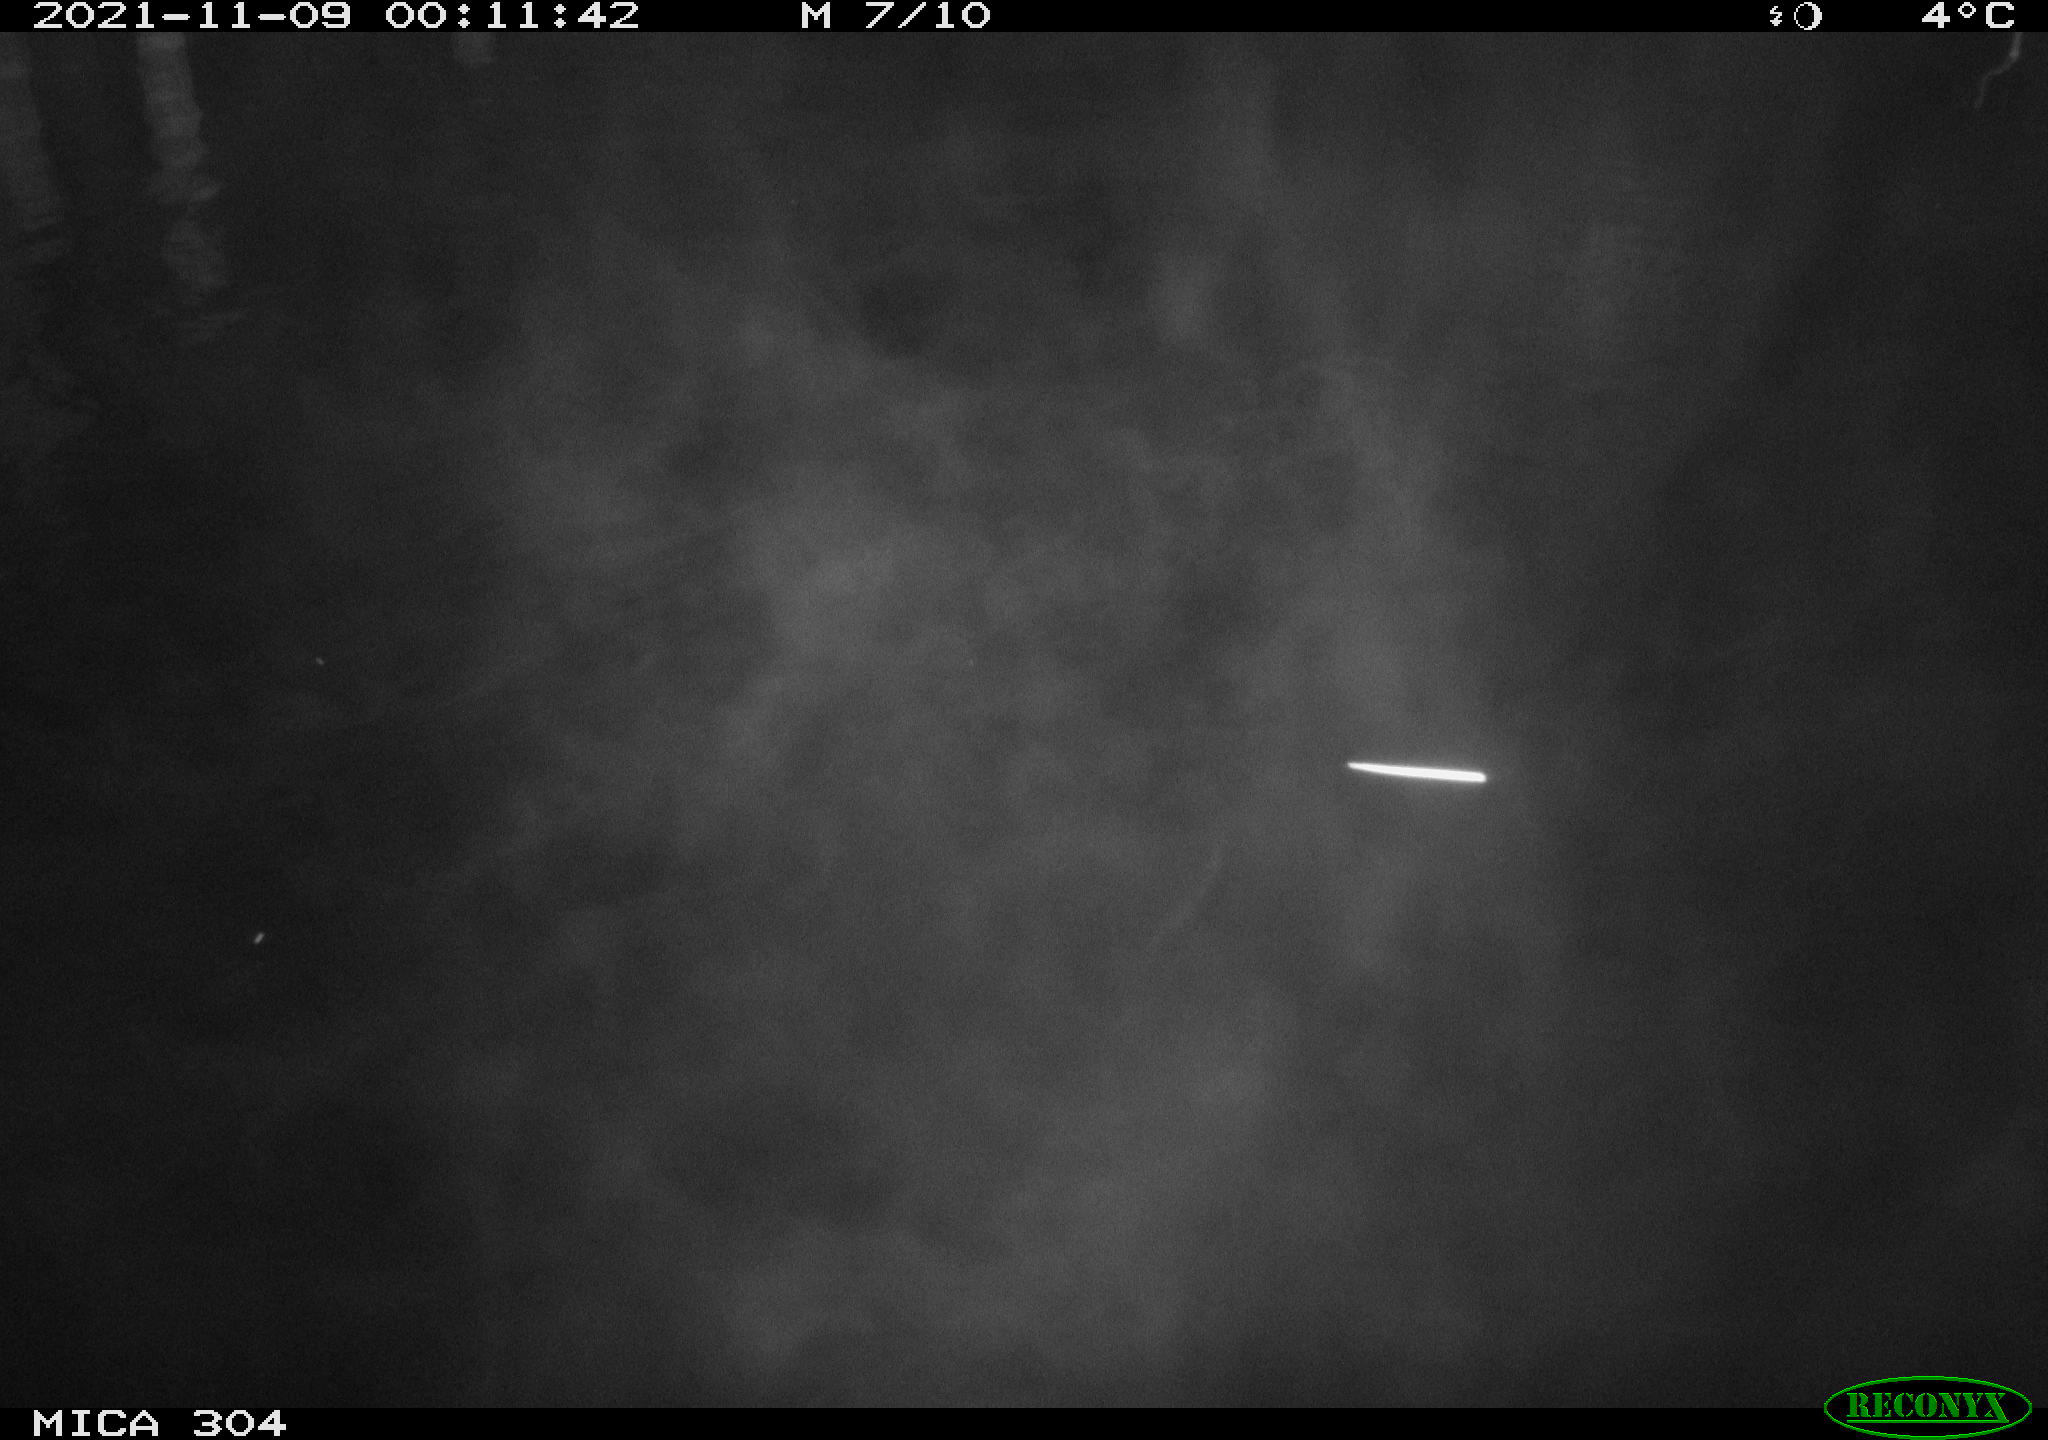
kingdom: Animalia
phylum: Chordata
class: Mammalia
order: Rodentia
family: Muridae
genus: Rattus
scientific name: Rattus norvegicus
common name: Brown rat
